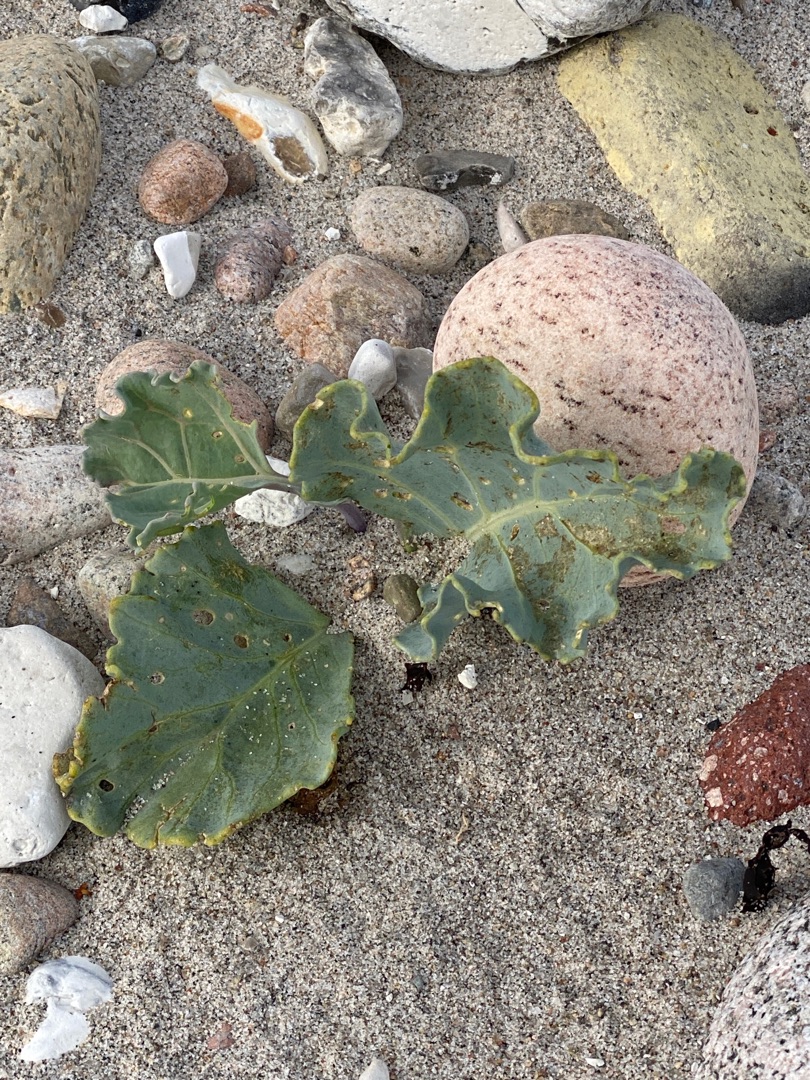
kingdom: Plantae
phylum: Tracheophyta
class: Magnoliopsida
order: Brassicales
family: Brassicaceae
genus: Crambe
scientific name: Crambe maritima
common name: Strandkål
